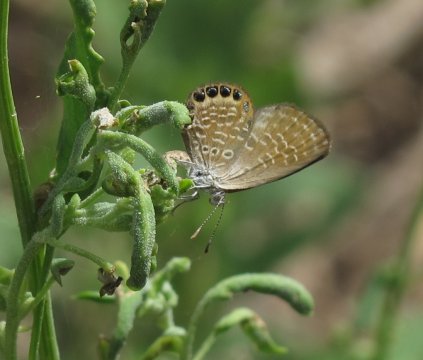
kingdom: Animalia
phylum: Arthropoda
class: Insecta
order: Lepidoptera
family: Lycaenidae
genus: Brephidium
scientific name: Brephidium isophthalma
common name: Eastern Pygmy-Blue
